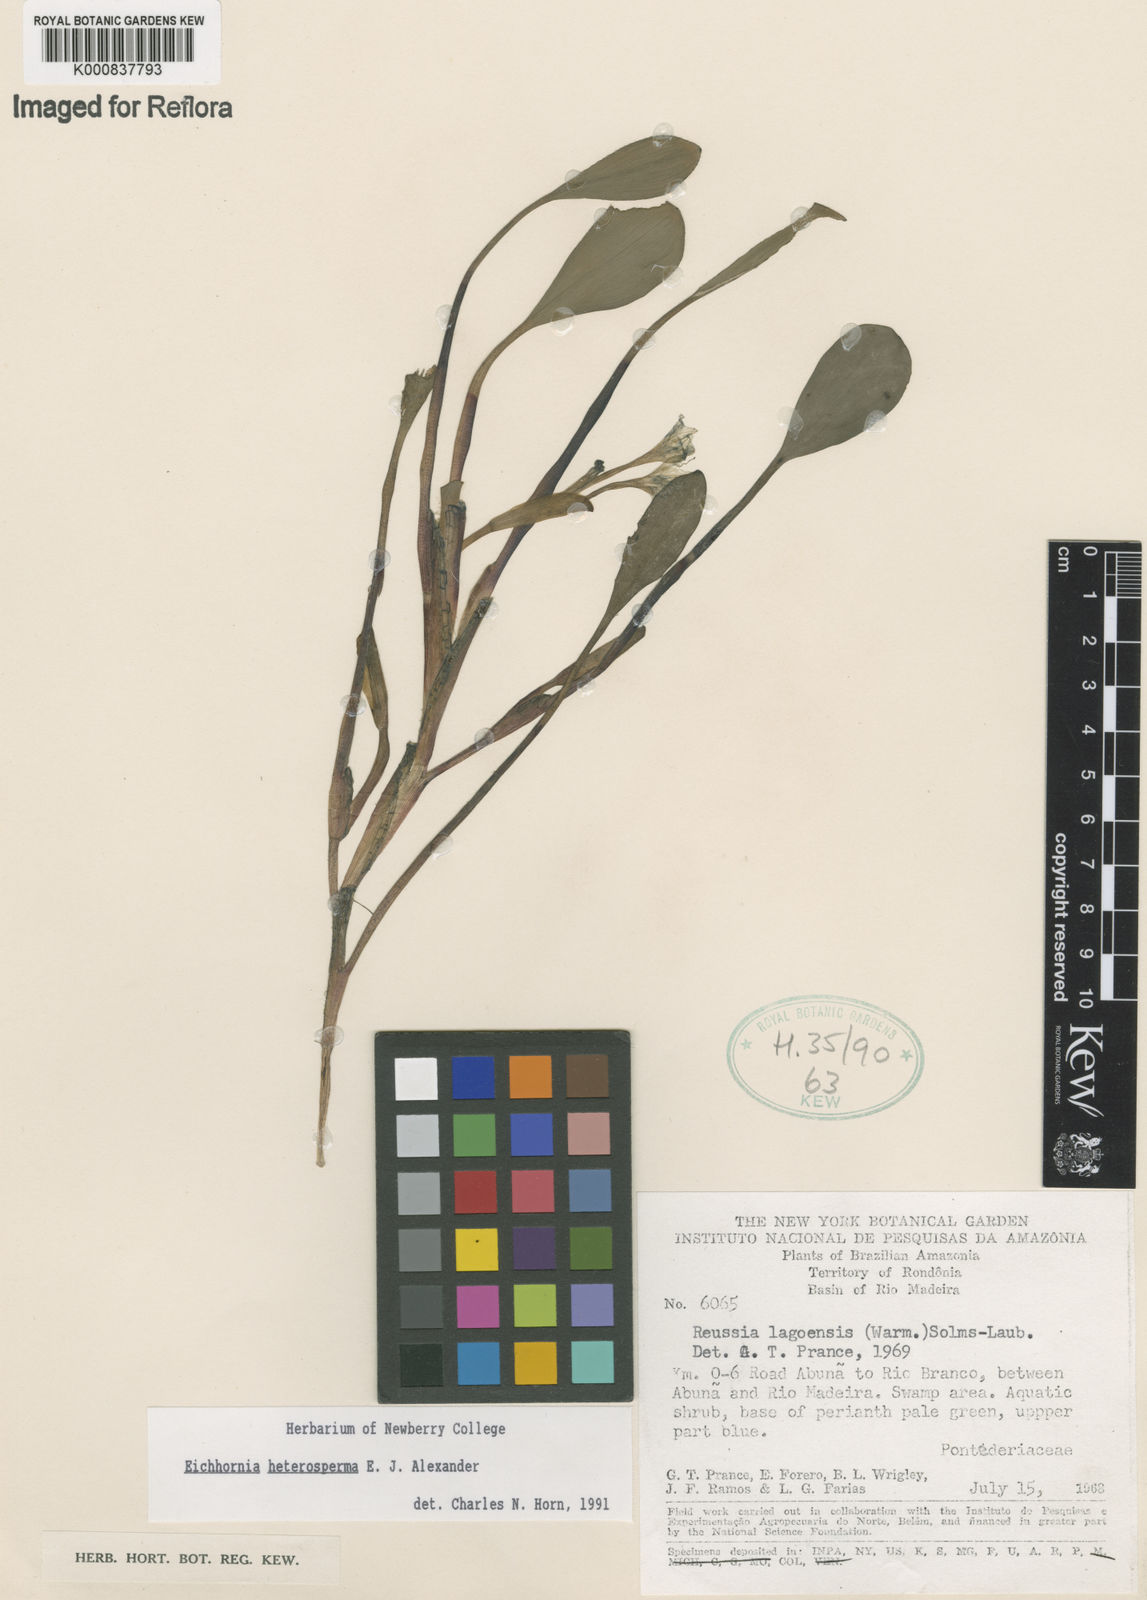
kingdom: Plantae
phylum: Tracheophyta
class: Liliopsida
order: Commelinales
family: Pontederiaceae
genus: Pontederia
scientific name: Pontederia heterosperma
